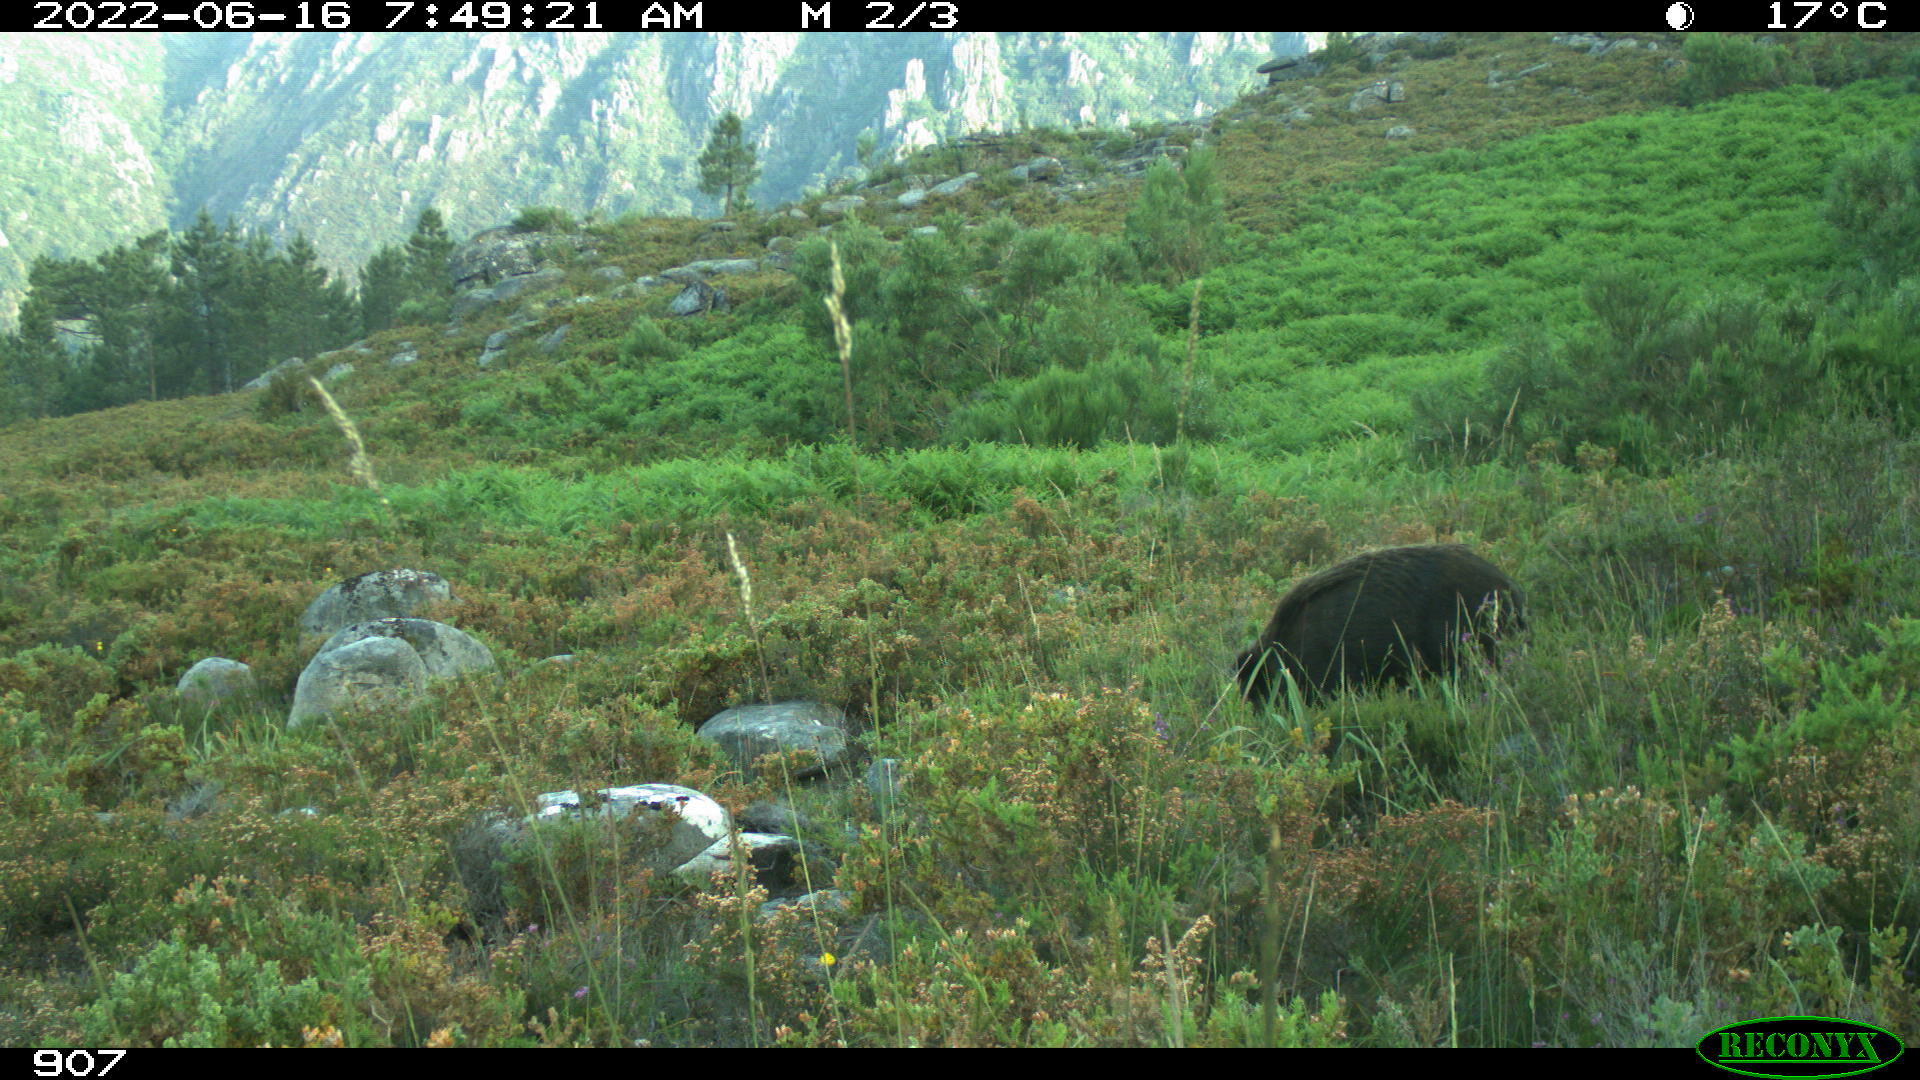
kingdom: Animalia
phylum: Chordata
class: Mammalia
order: Artiodactyla
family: Suidae
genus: Sus
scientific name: Sus scrofa
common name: Wild boar
